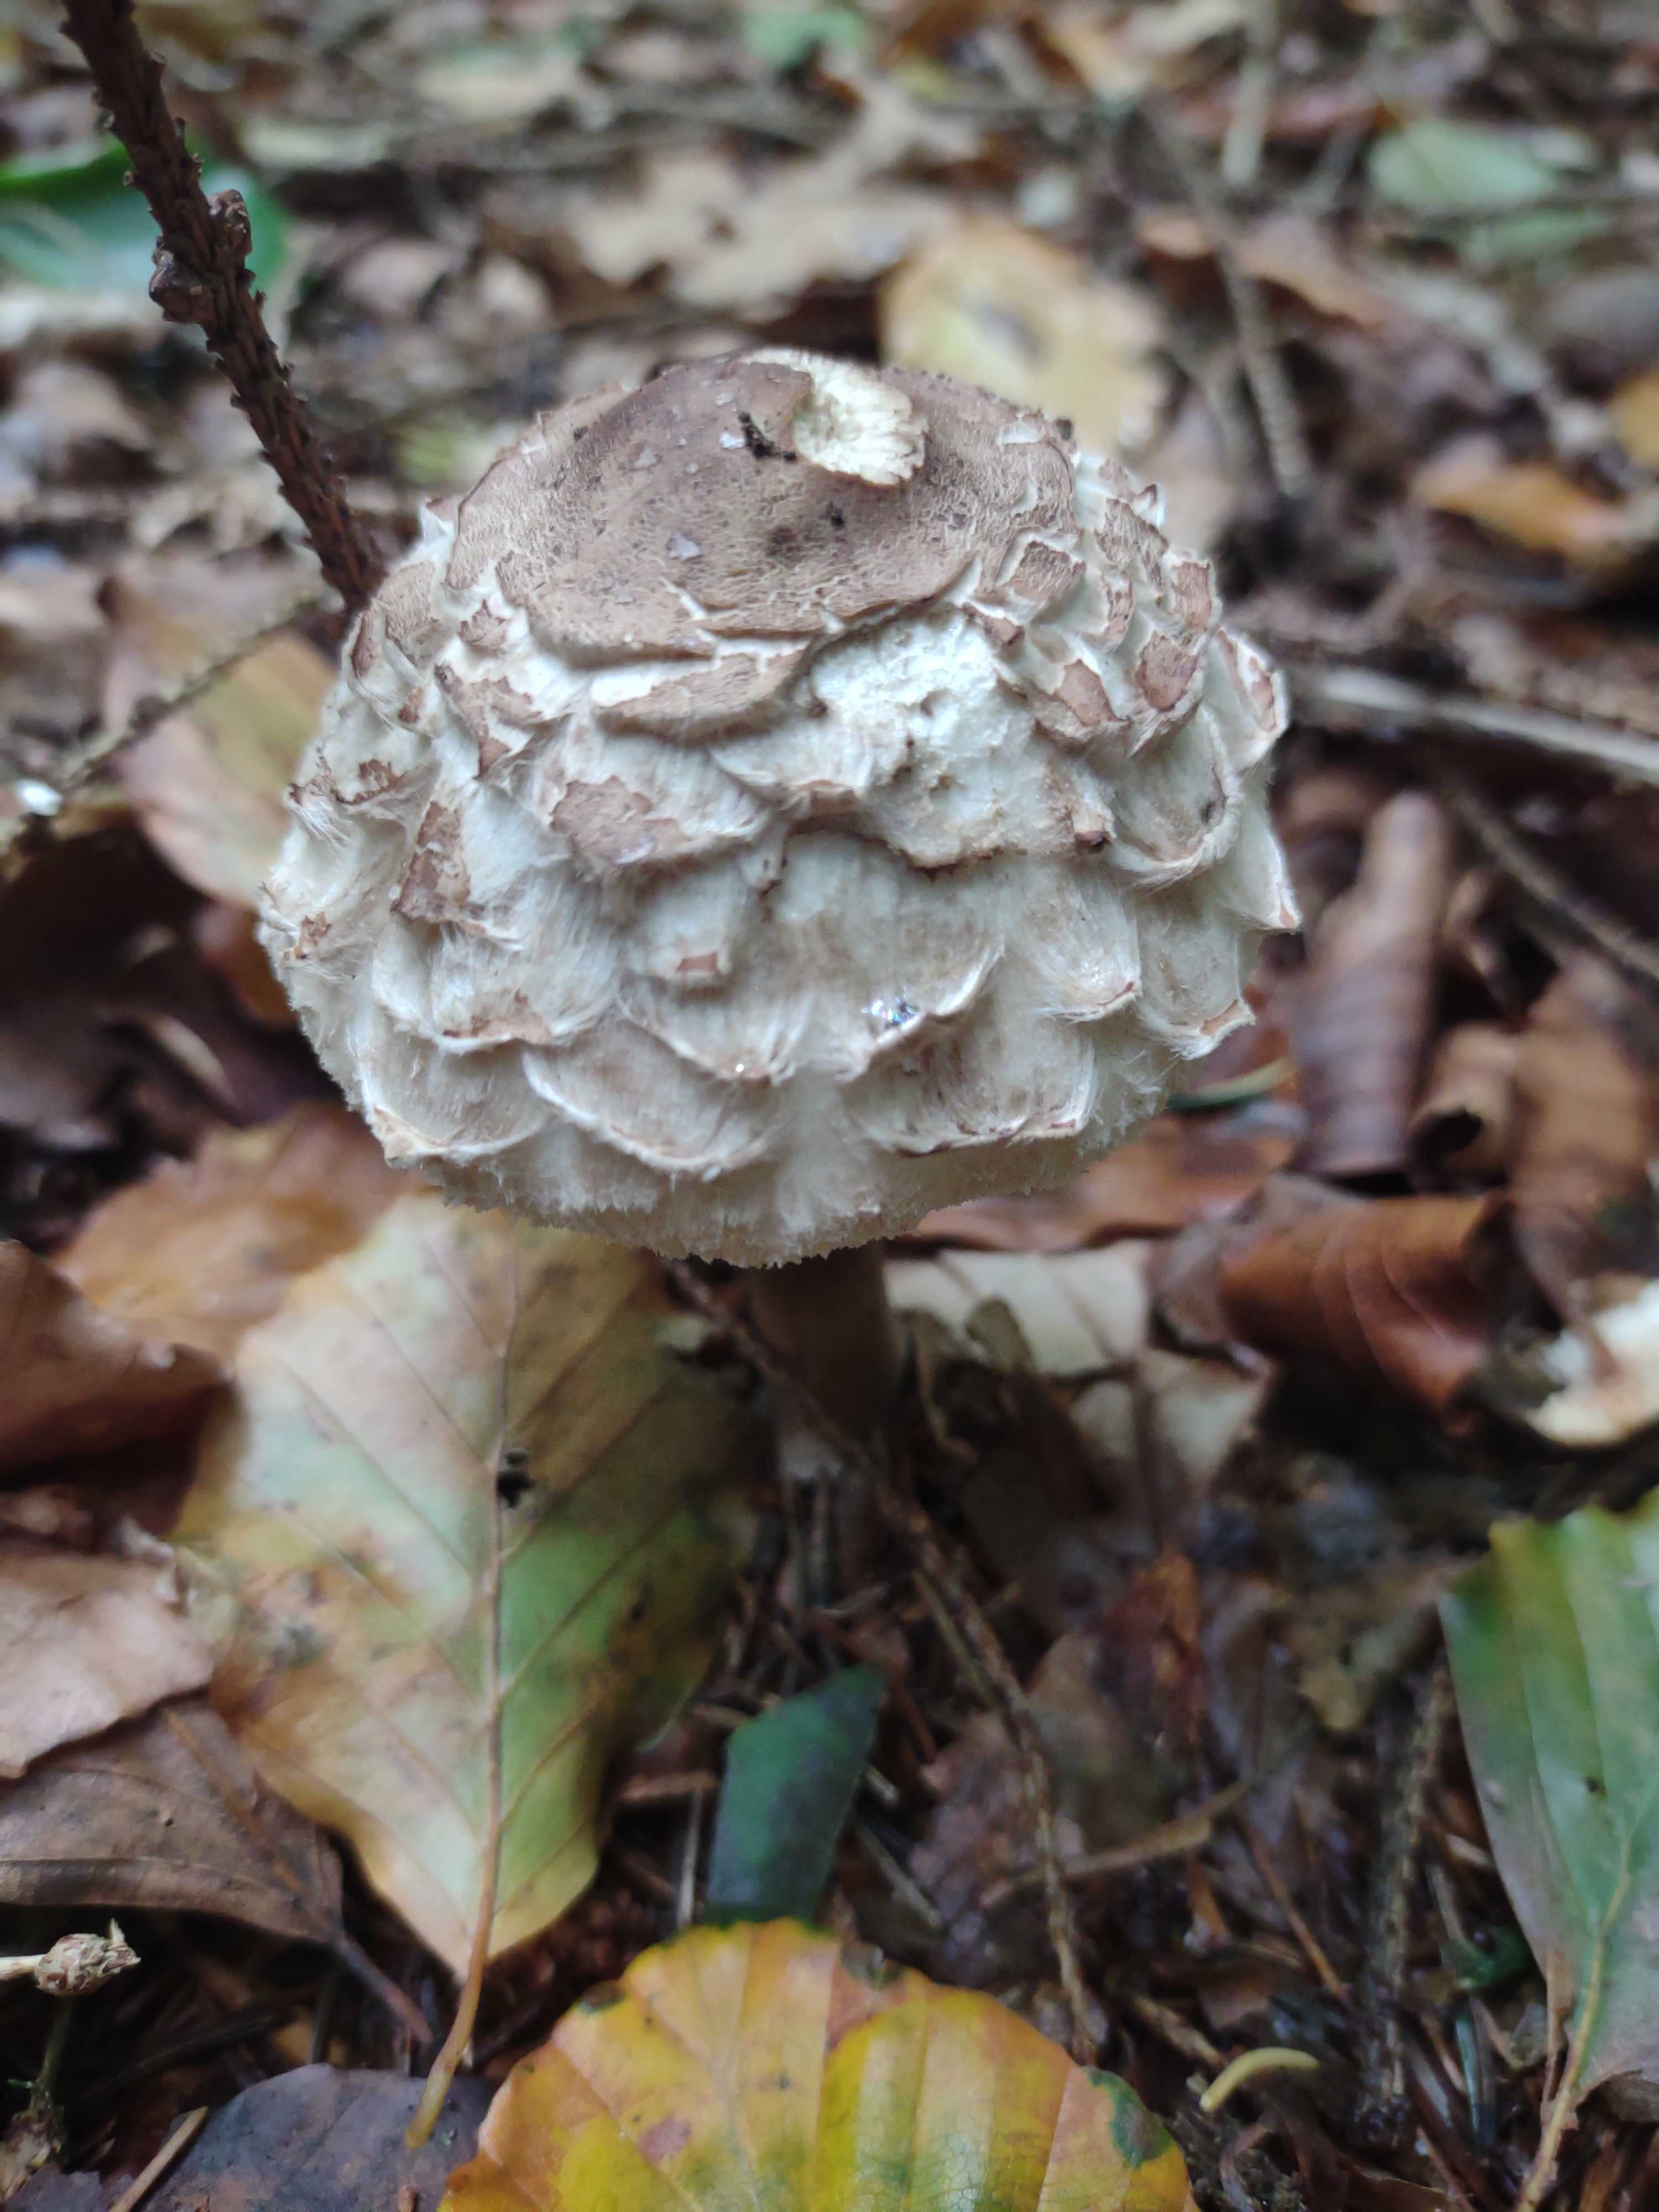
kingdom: Fungi
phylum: Basidiomycota
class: Agaricomycetes
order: Agaricales
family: Agaricaceae
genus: Chlorophyllum
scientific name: Chlorophyllum
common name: rabarberhat
